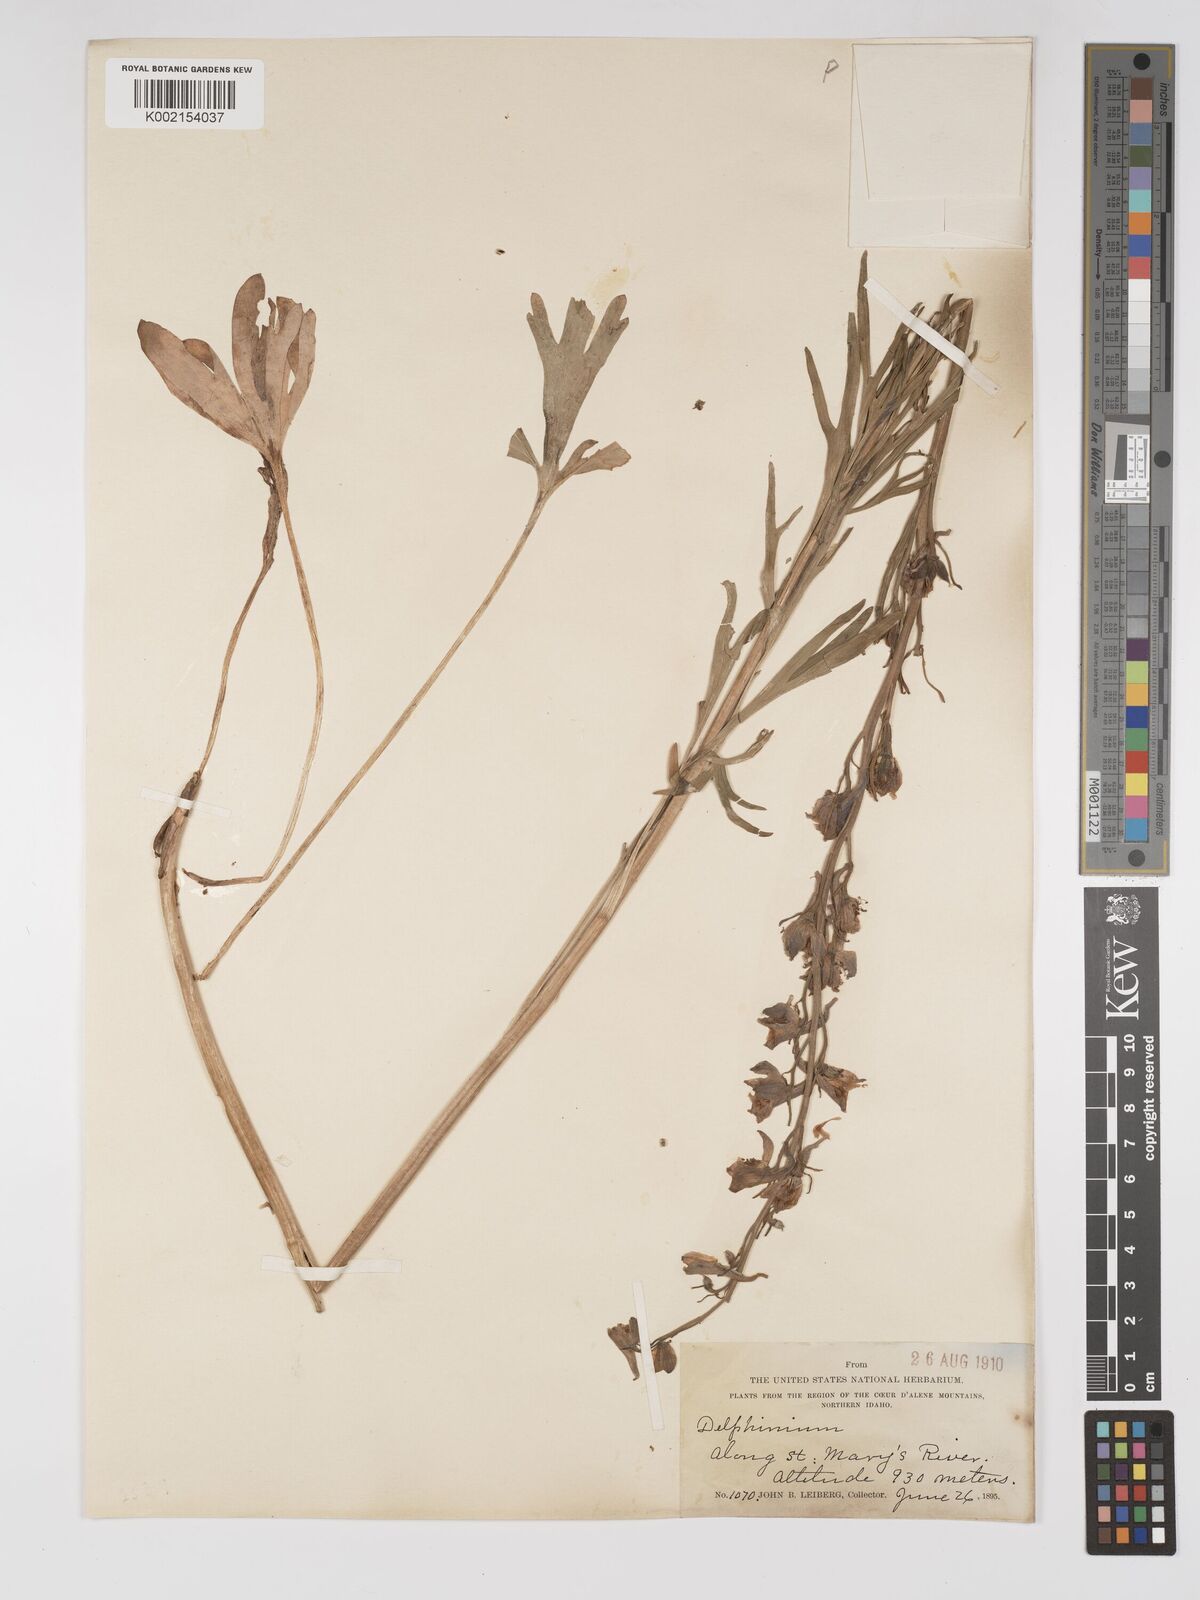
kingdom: Plantae
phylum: Tracheophyta
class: Magnoliopsida
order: Ranunculales
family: Ranunculaceae
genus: Delphinium
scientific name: Delphinium
